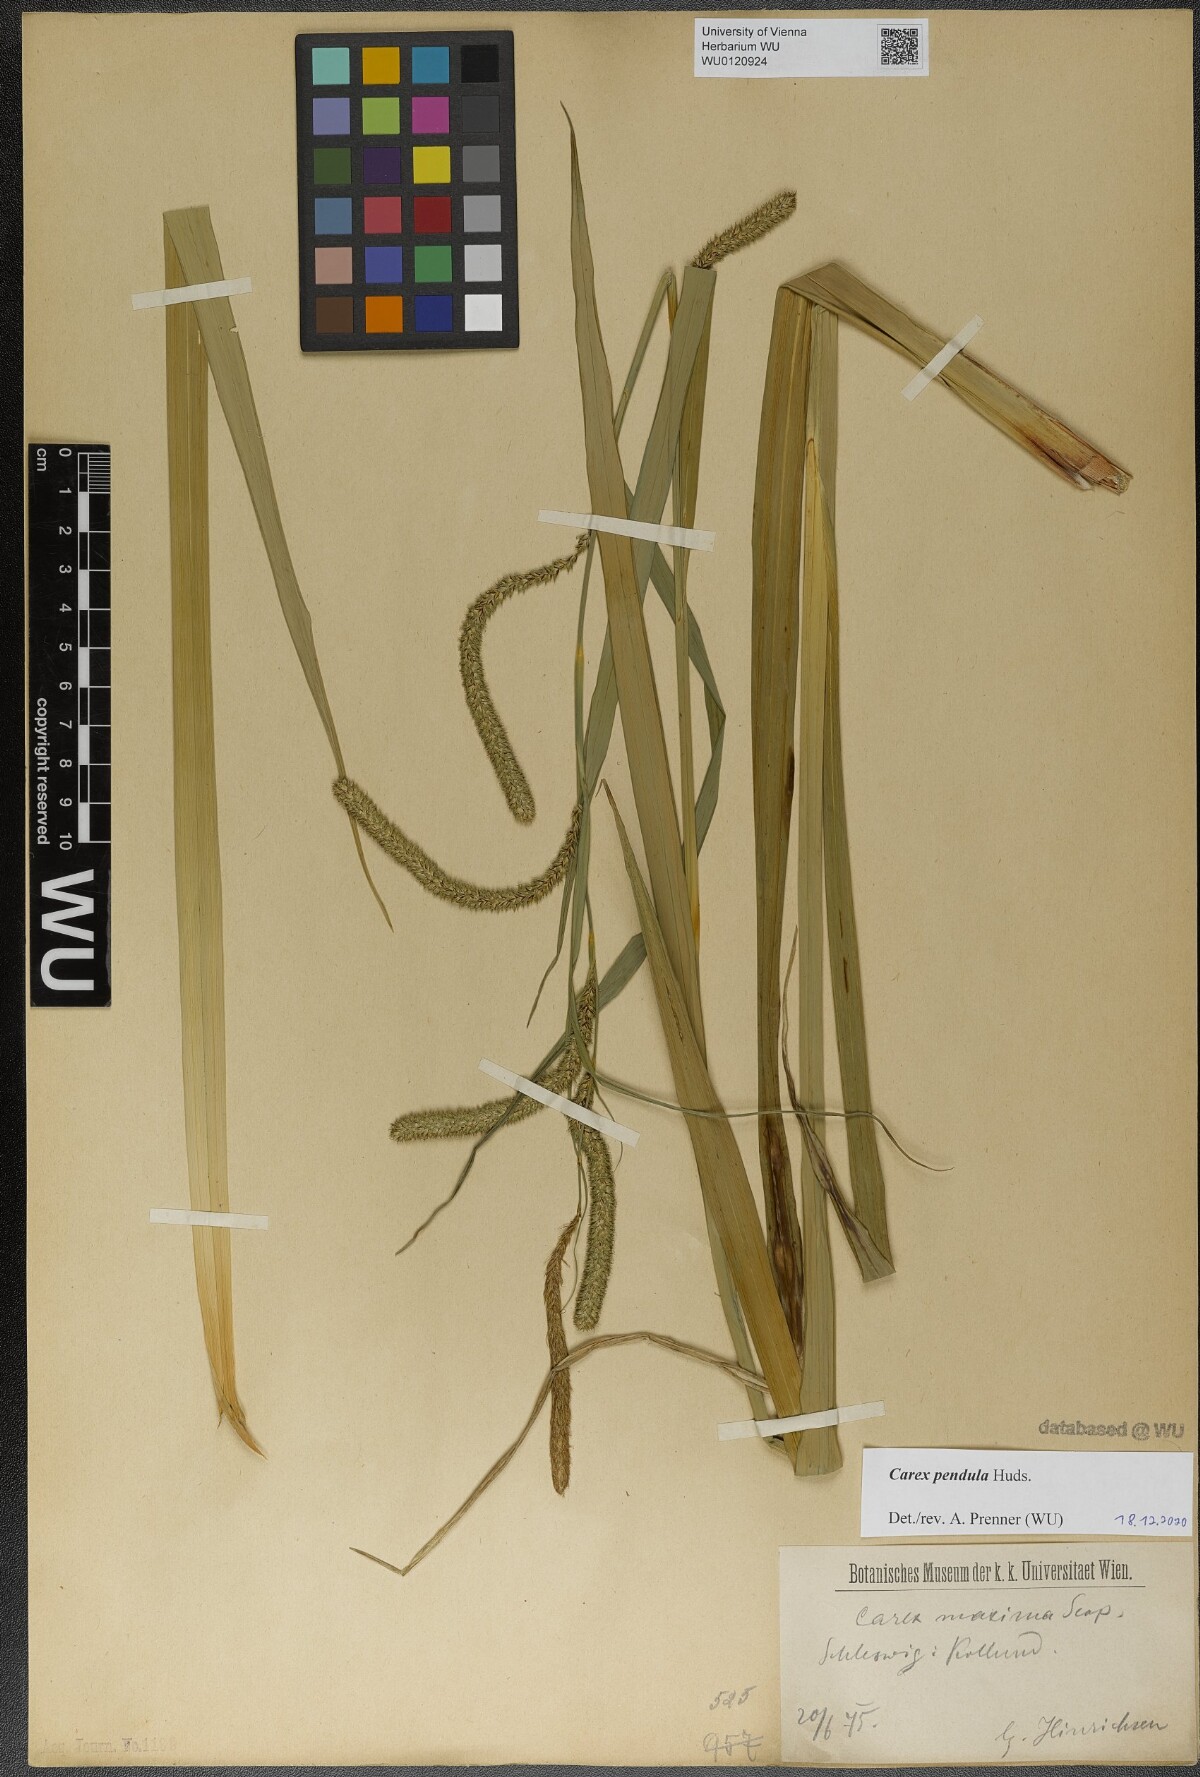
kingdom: Plantae
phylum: Tracheophyta
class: Liliopsida
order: Poales
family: Cyperaceae
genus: Carex
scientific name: Carex pendula
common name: Pendulous sedge
